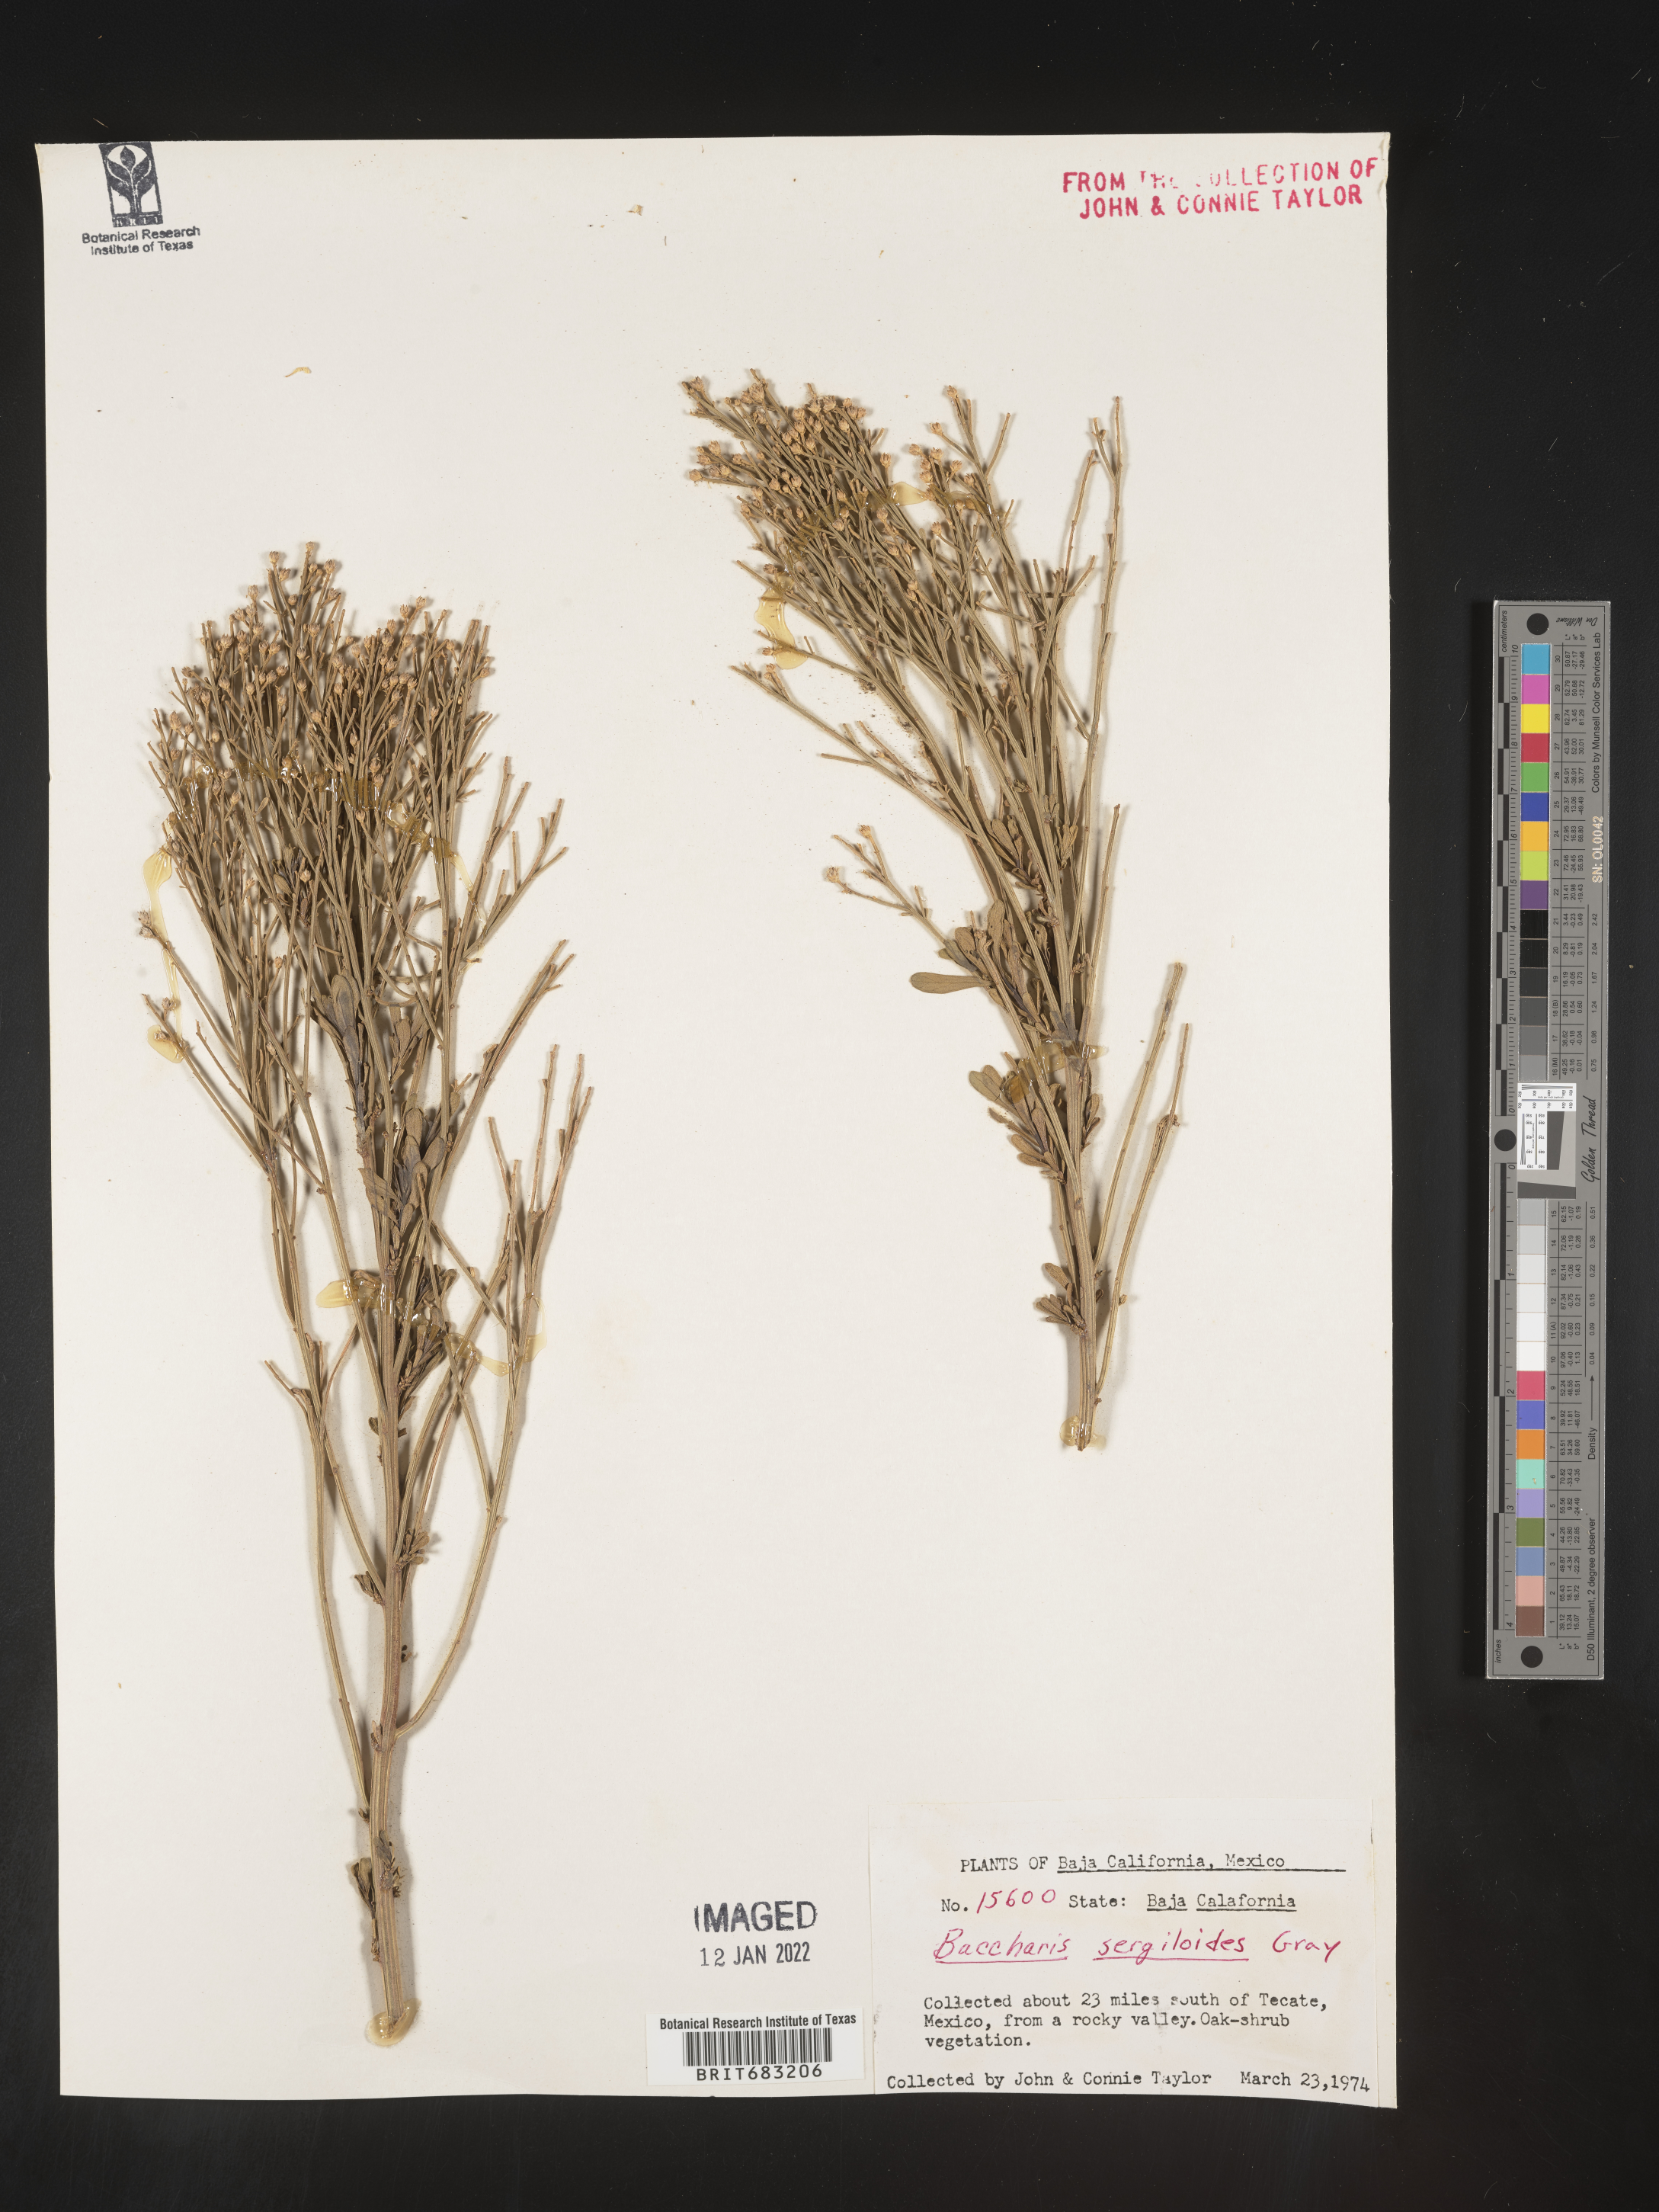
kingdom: Plantae
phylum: Tracheophyta
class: Magnoliopsida
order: Asterales
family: Asteraceae
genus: Baccharis
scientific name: Baccharis sergiloides
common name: Desert baccharis
